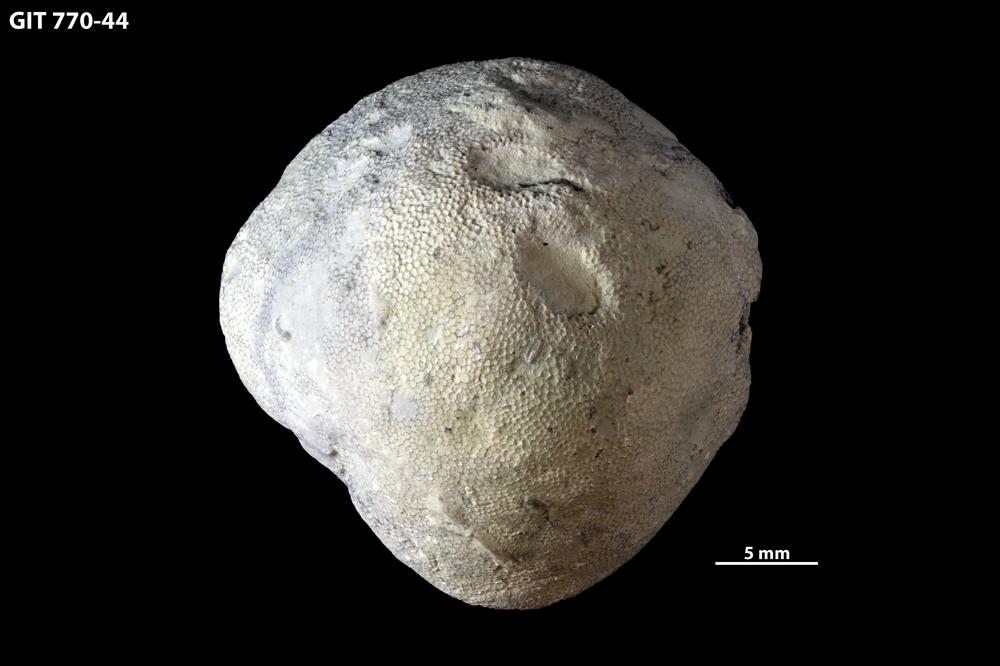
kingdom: Animalia
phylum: Bryozoa
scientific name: Bryozoa
